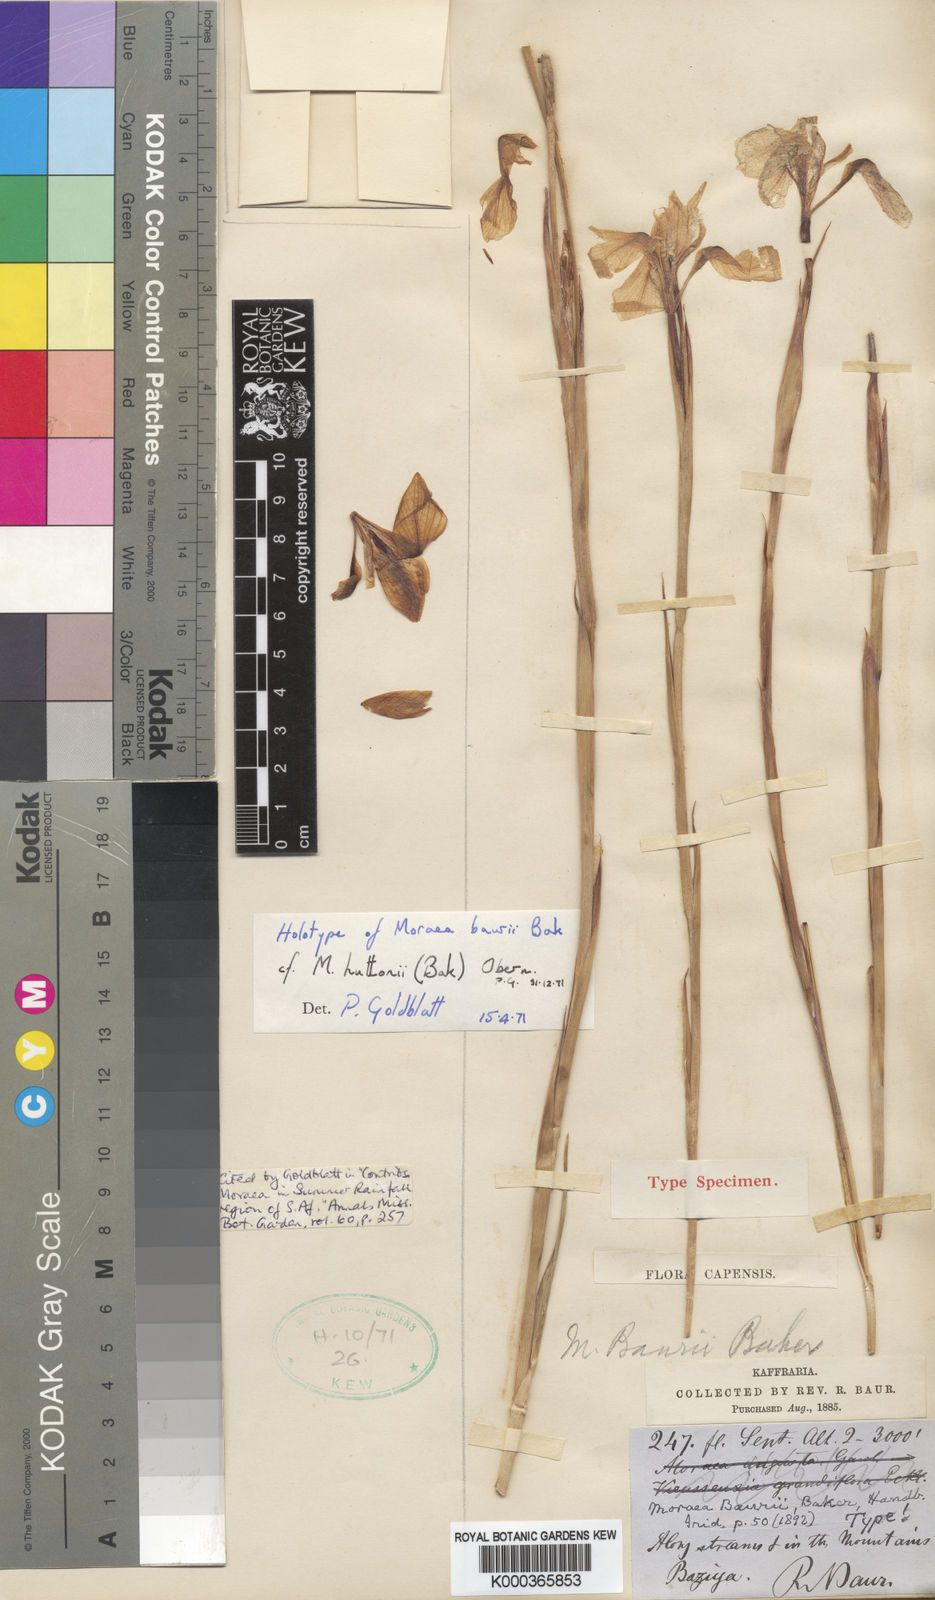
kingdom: Plantae
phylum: Tracheophyta
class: Liliopsida
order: Asparagales
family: Iridaceae
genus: Moraea
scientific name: Moraea huttonii
